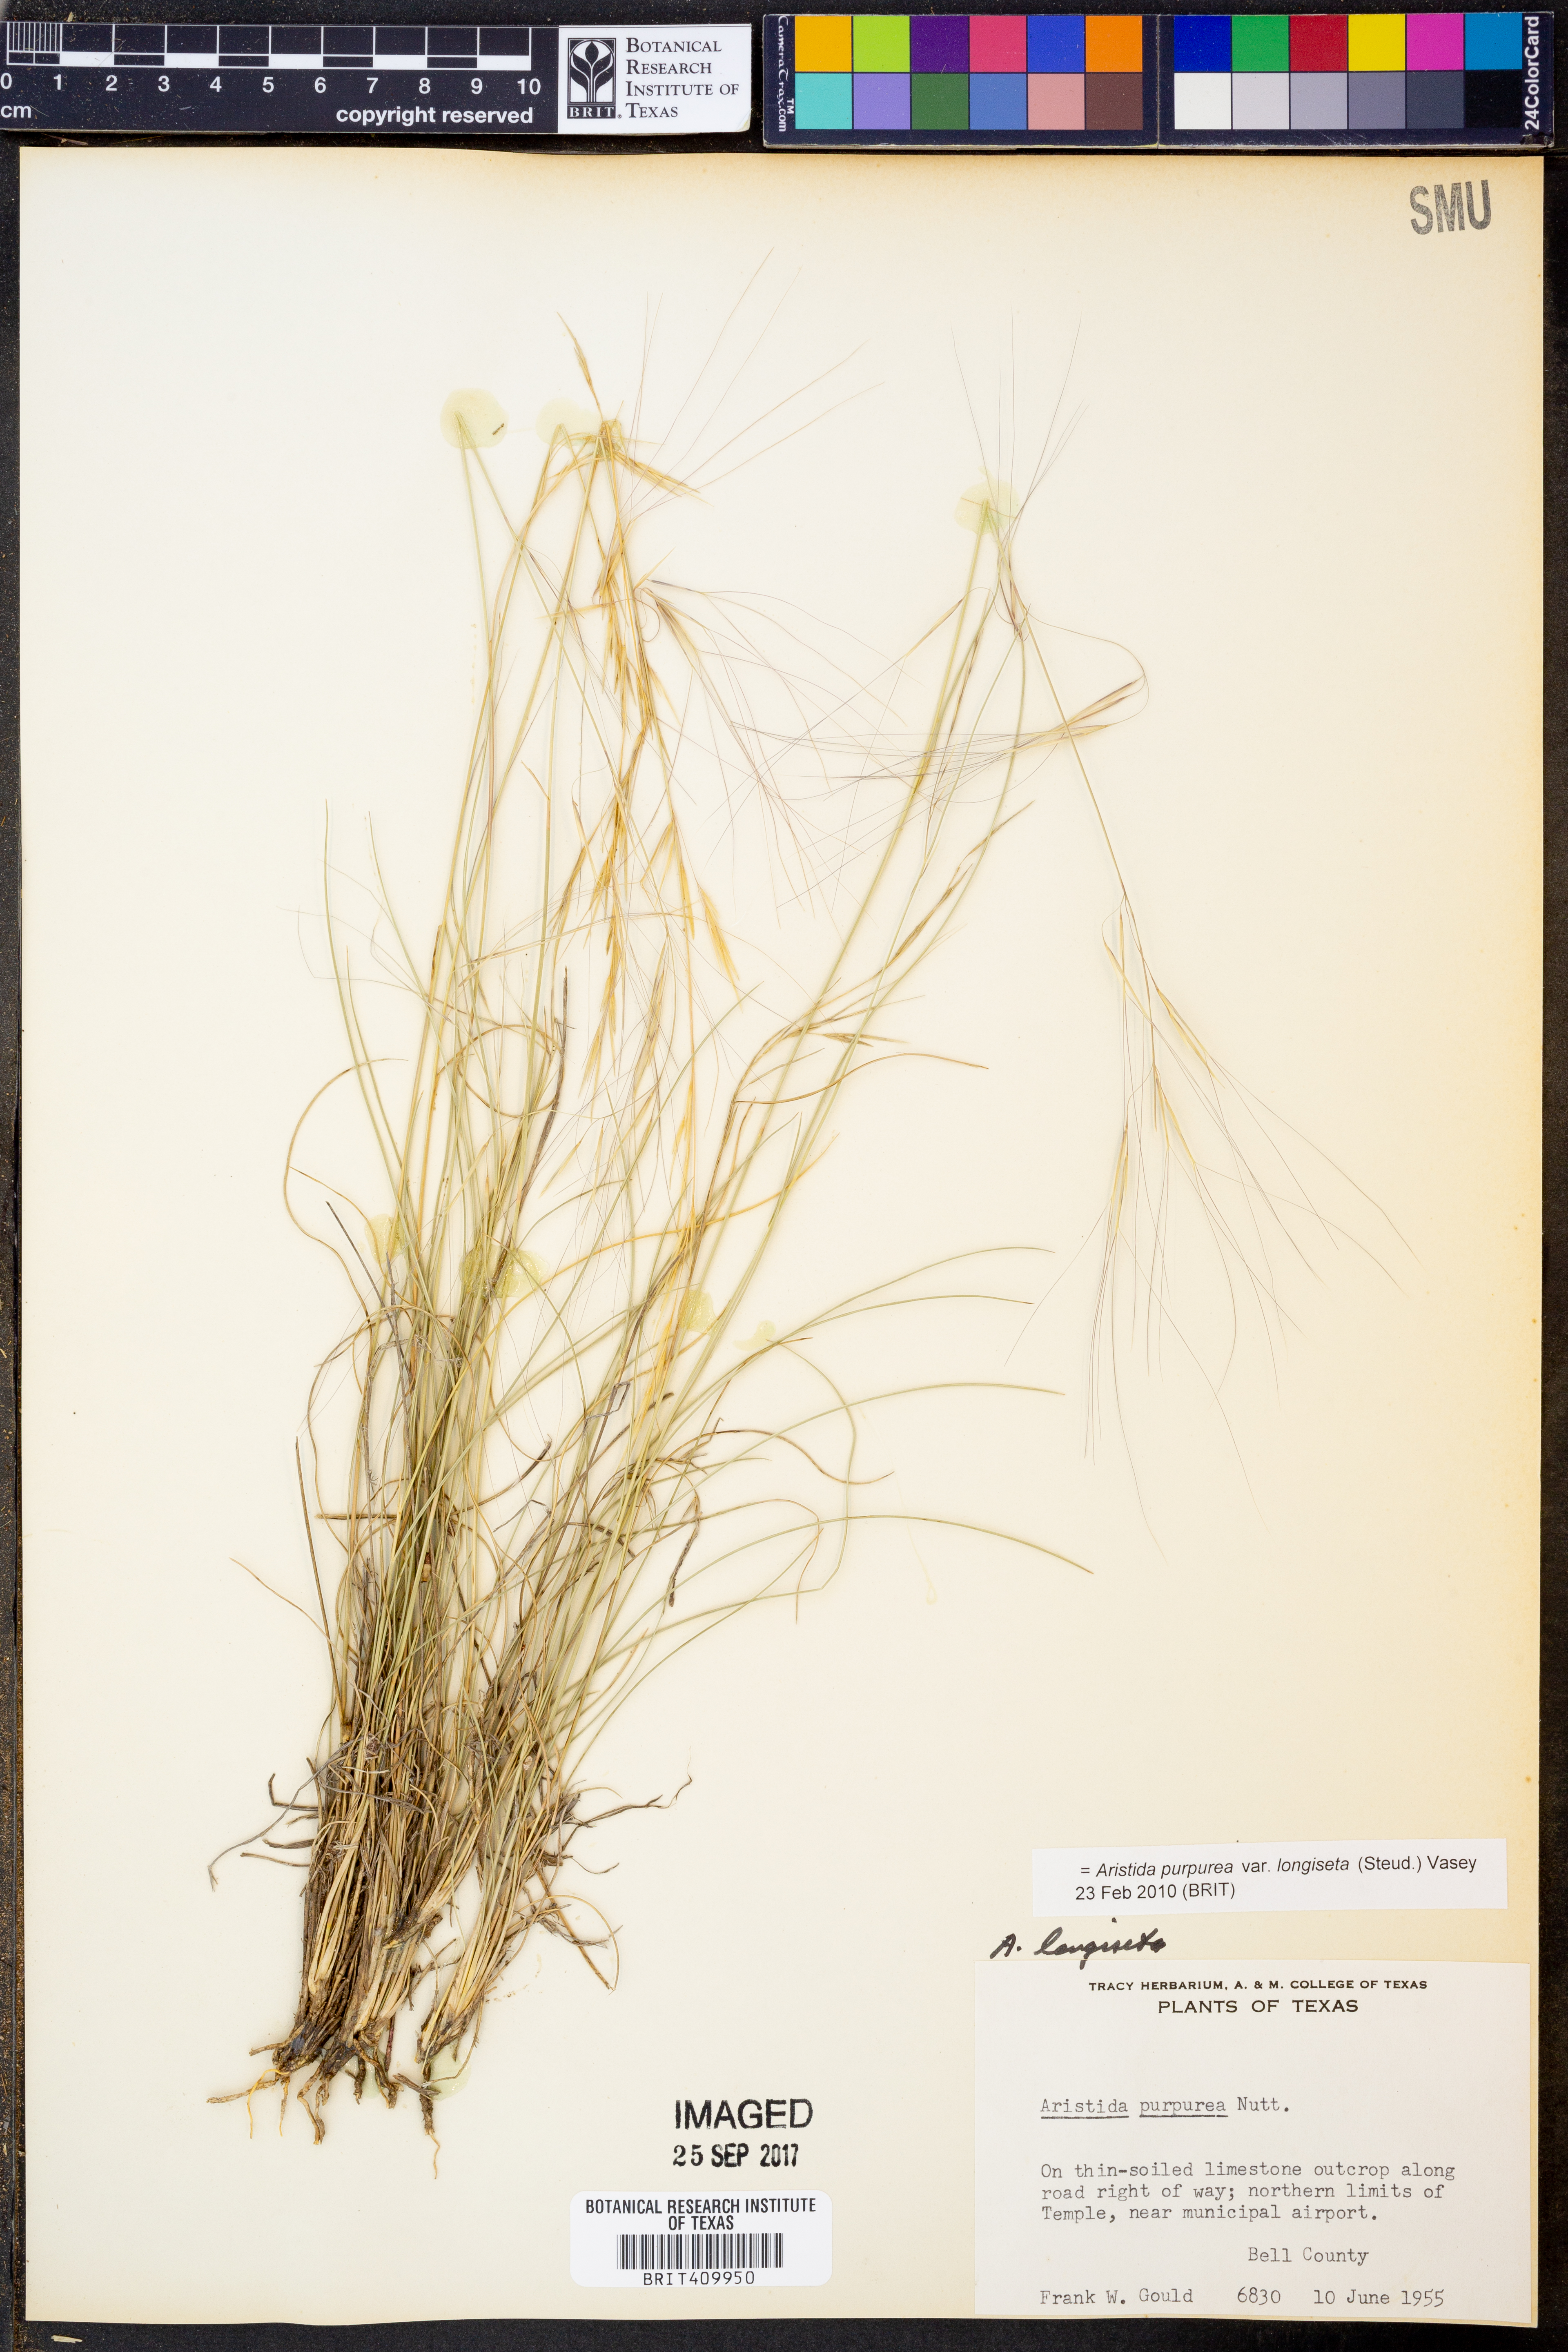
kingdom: Plantae
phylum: Tracheophyta
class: Liliopsida
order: Poales
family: Poaceae
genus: Aristida
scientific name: Aristida longiseta
